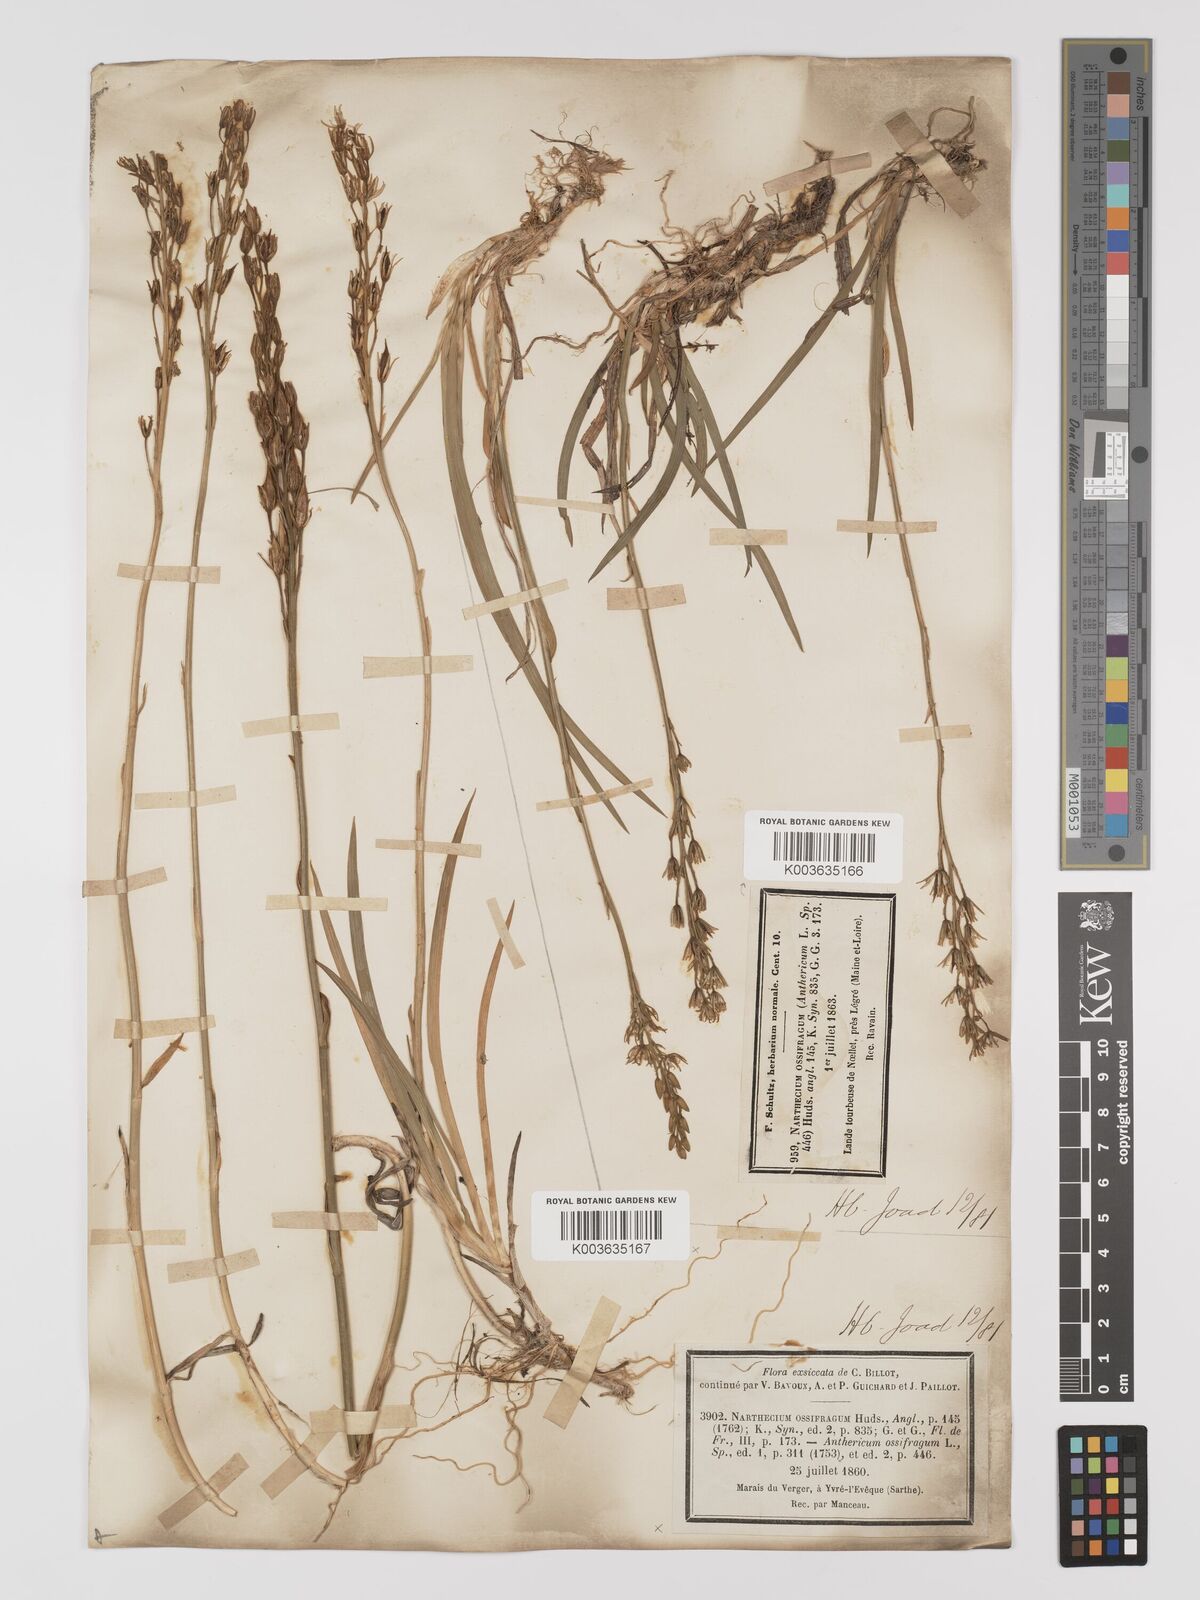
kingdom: Plantae
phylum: Tracheophyta
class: Liliopsida
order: Dioscoreales
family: Nartheciaceae
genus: Narthecium
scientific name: Narthecium ossifragum
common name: Bog asphodel
